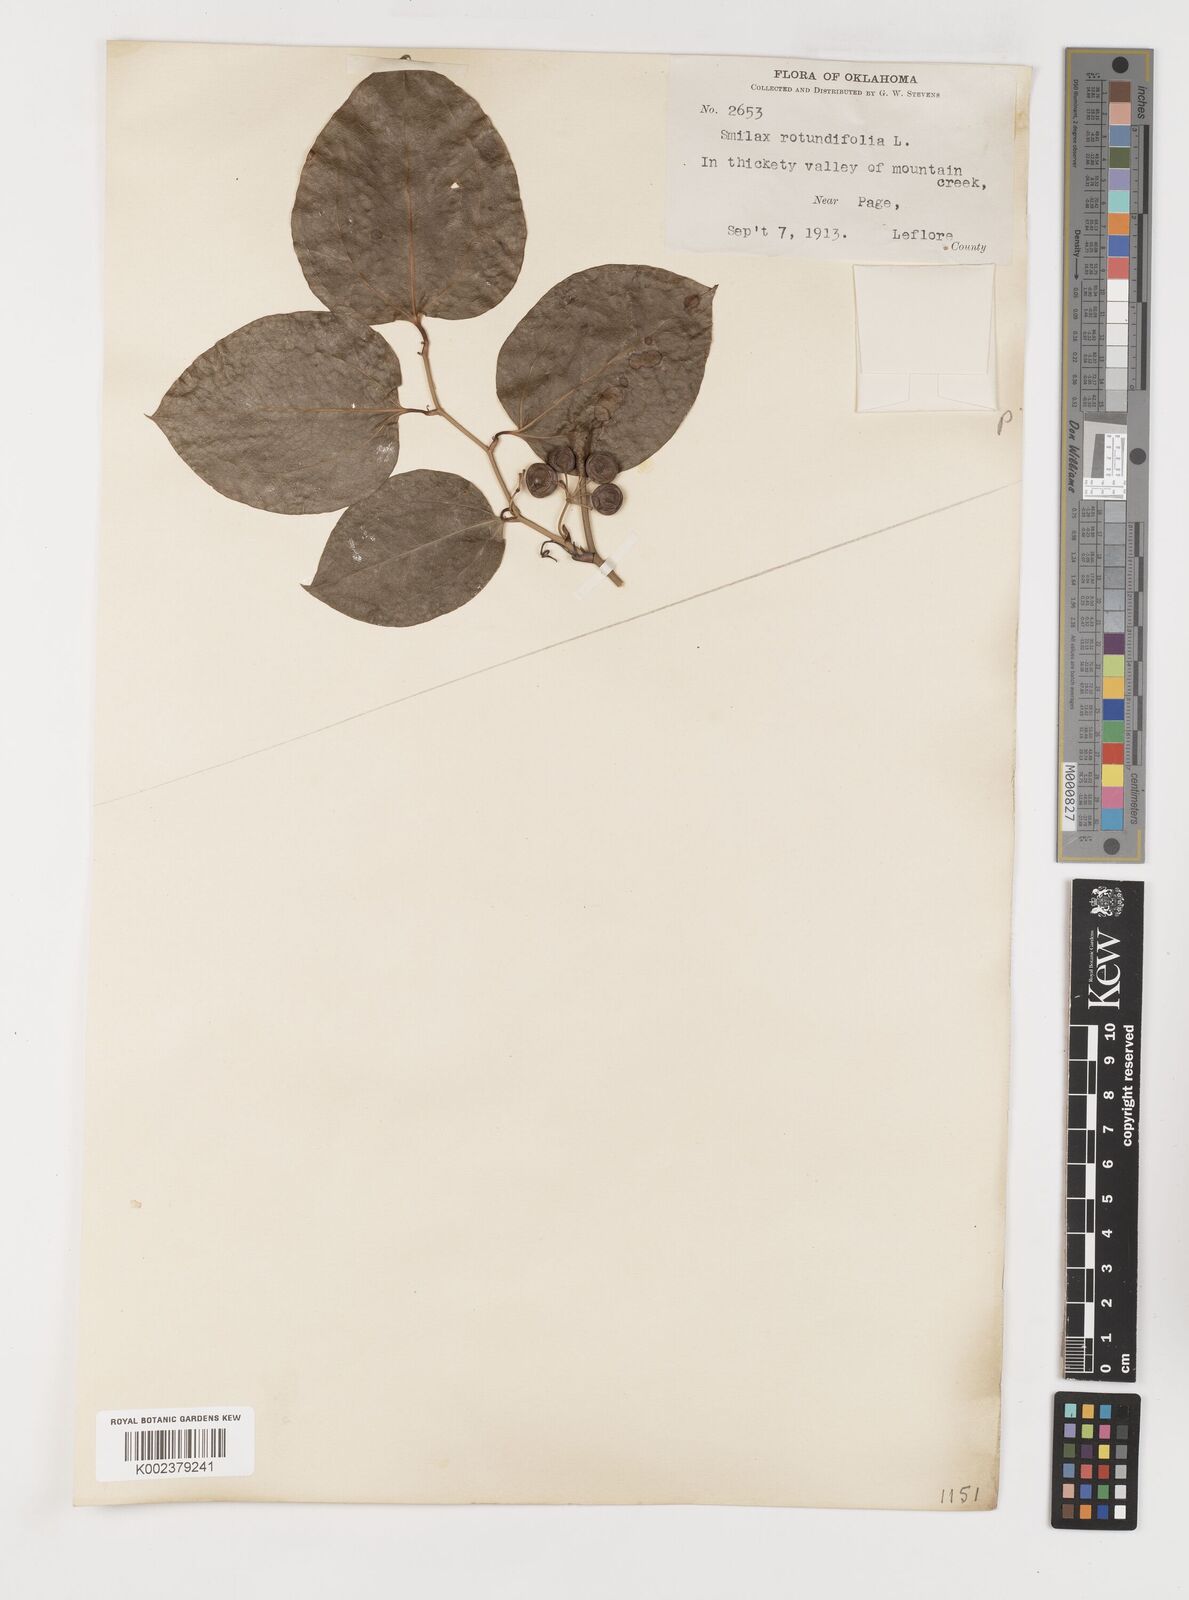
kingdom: Plantae
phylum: Tracheophyta
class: Liliopsida
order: Liliales
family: Smilacaceae
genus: Smilax
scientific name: Smilax rotundifolia
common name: Bullbriar
